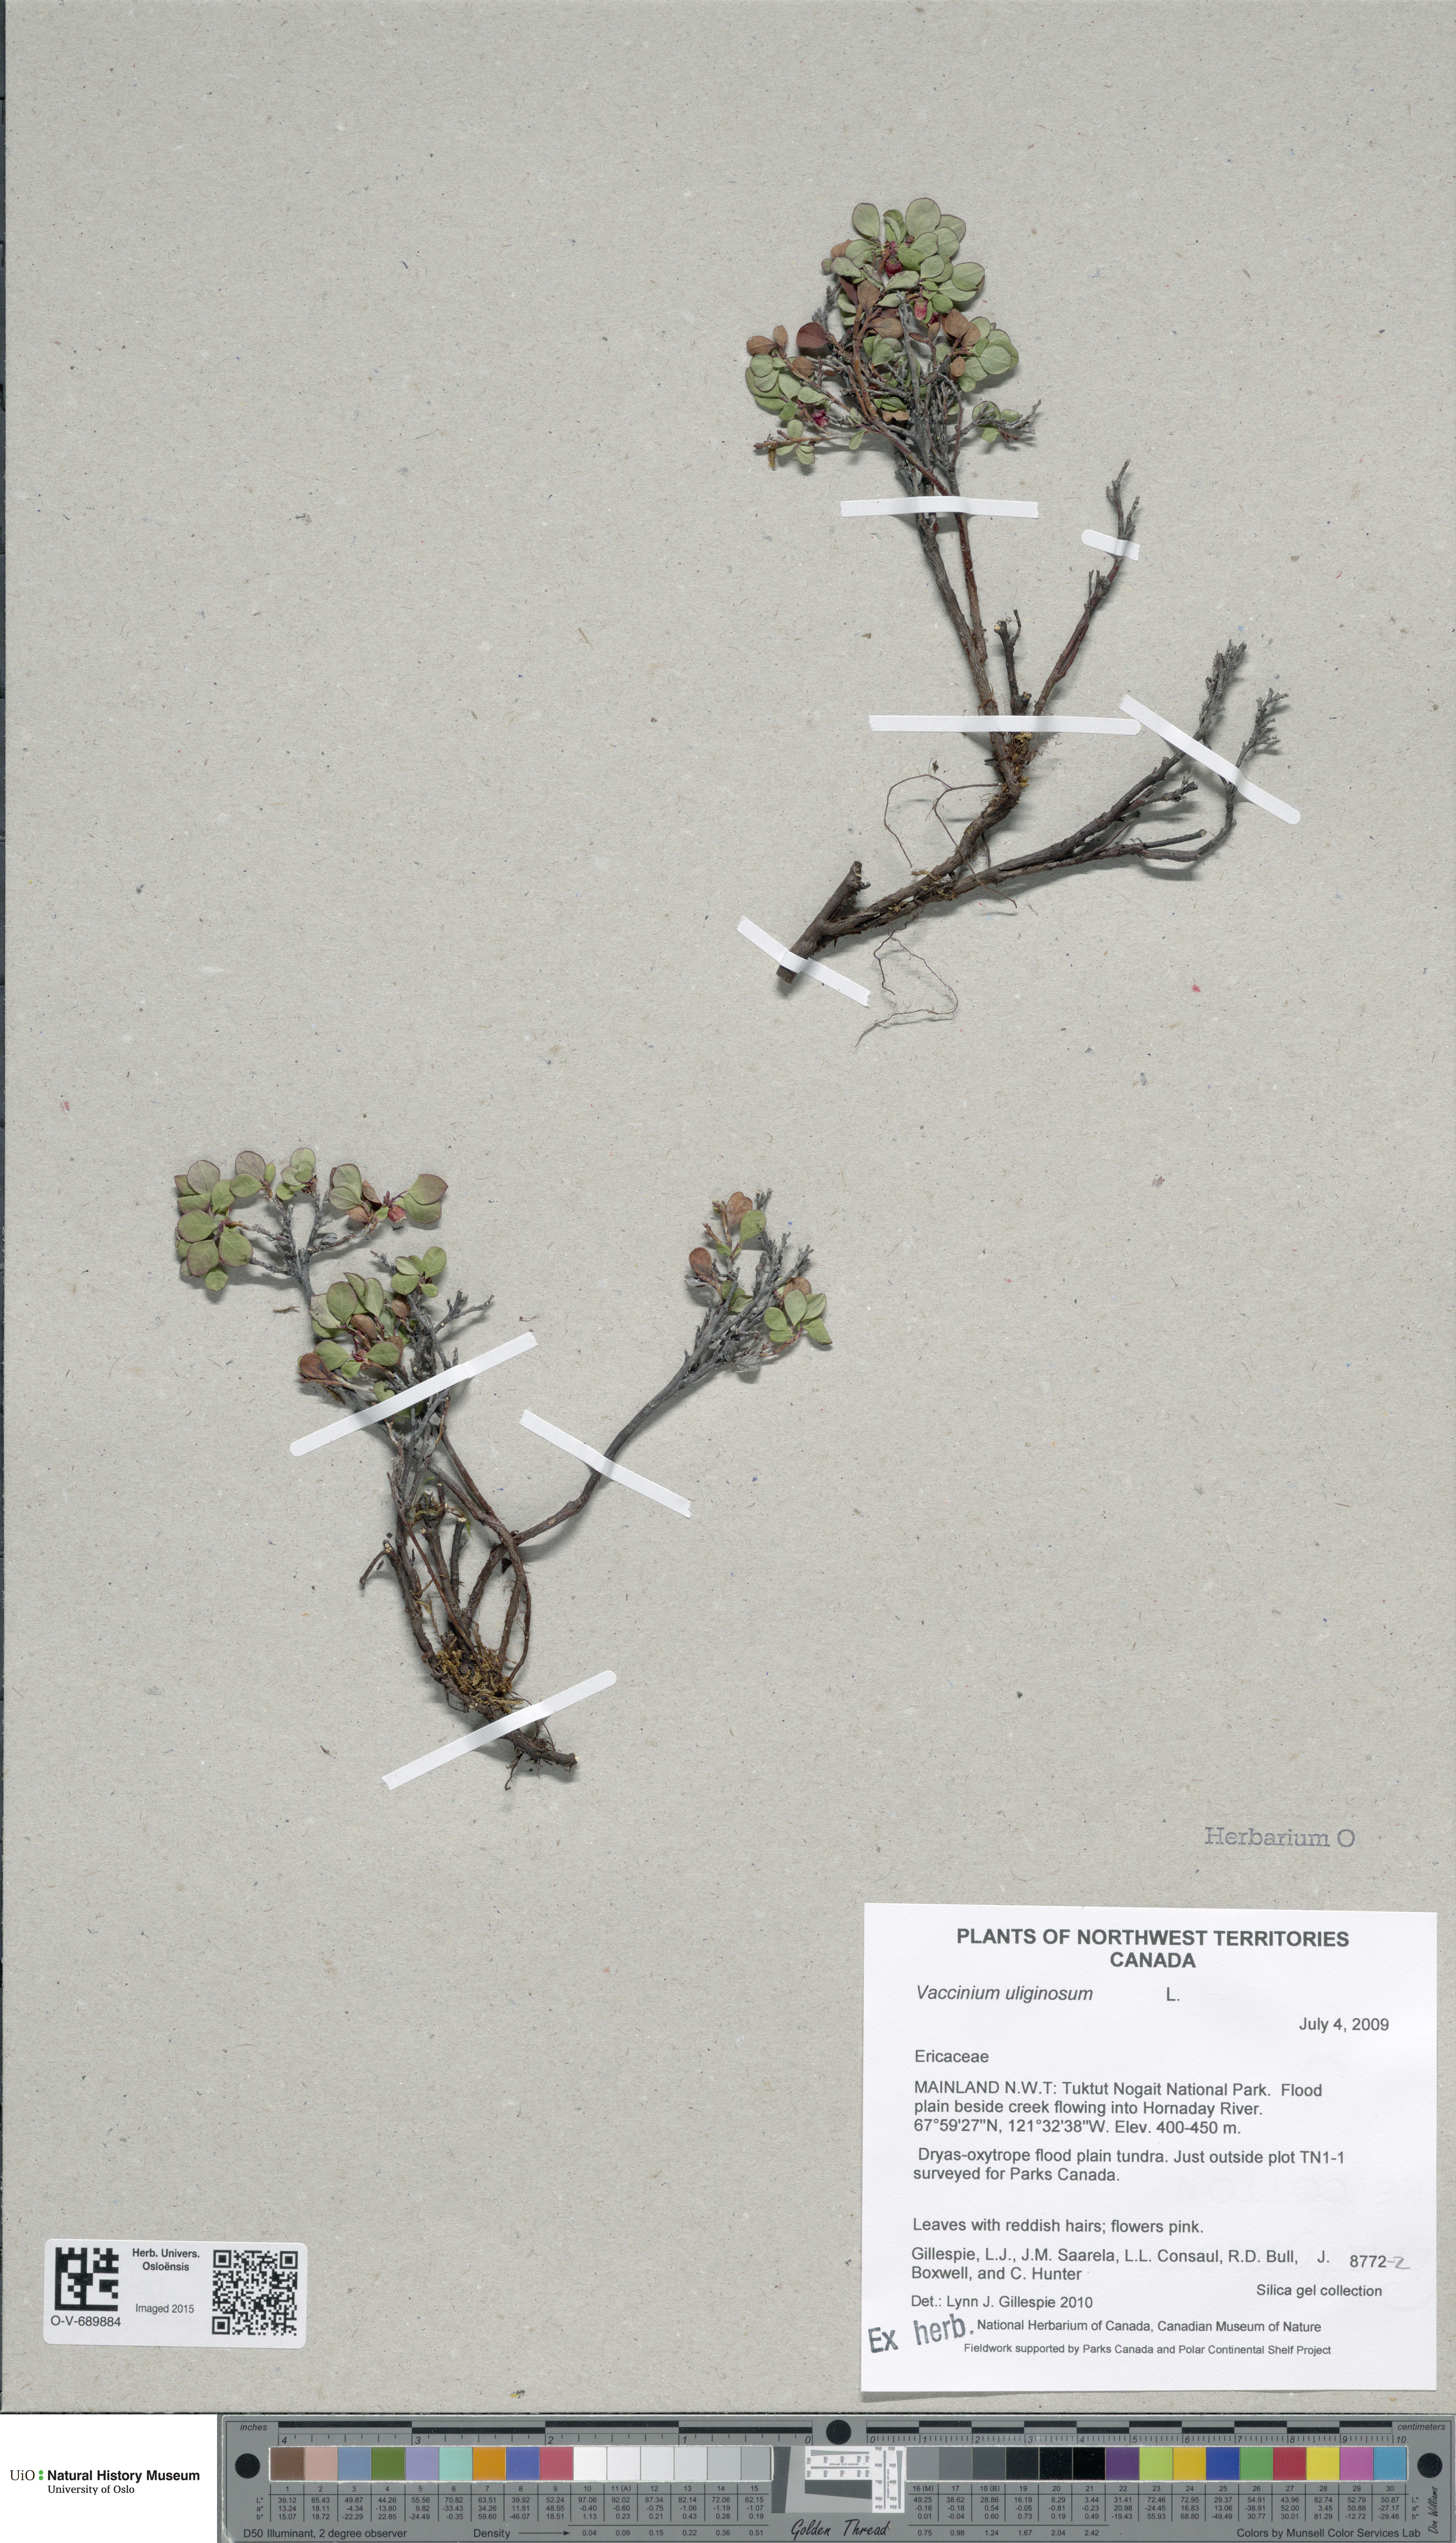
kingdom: Plantae
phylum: Tracheophyta
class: Magnoliopsida
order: Ericales
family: Ericaceae
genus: Vaccinium
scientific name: Vaccinium uliginosum
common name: Bog bilberry
